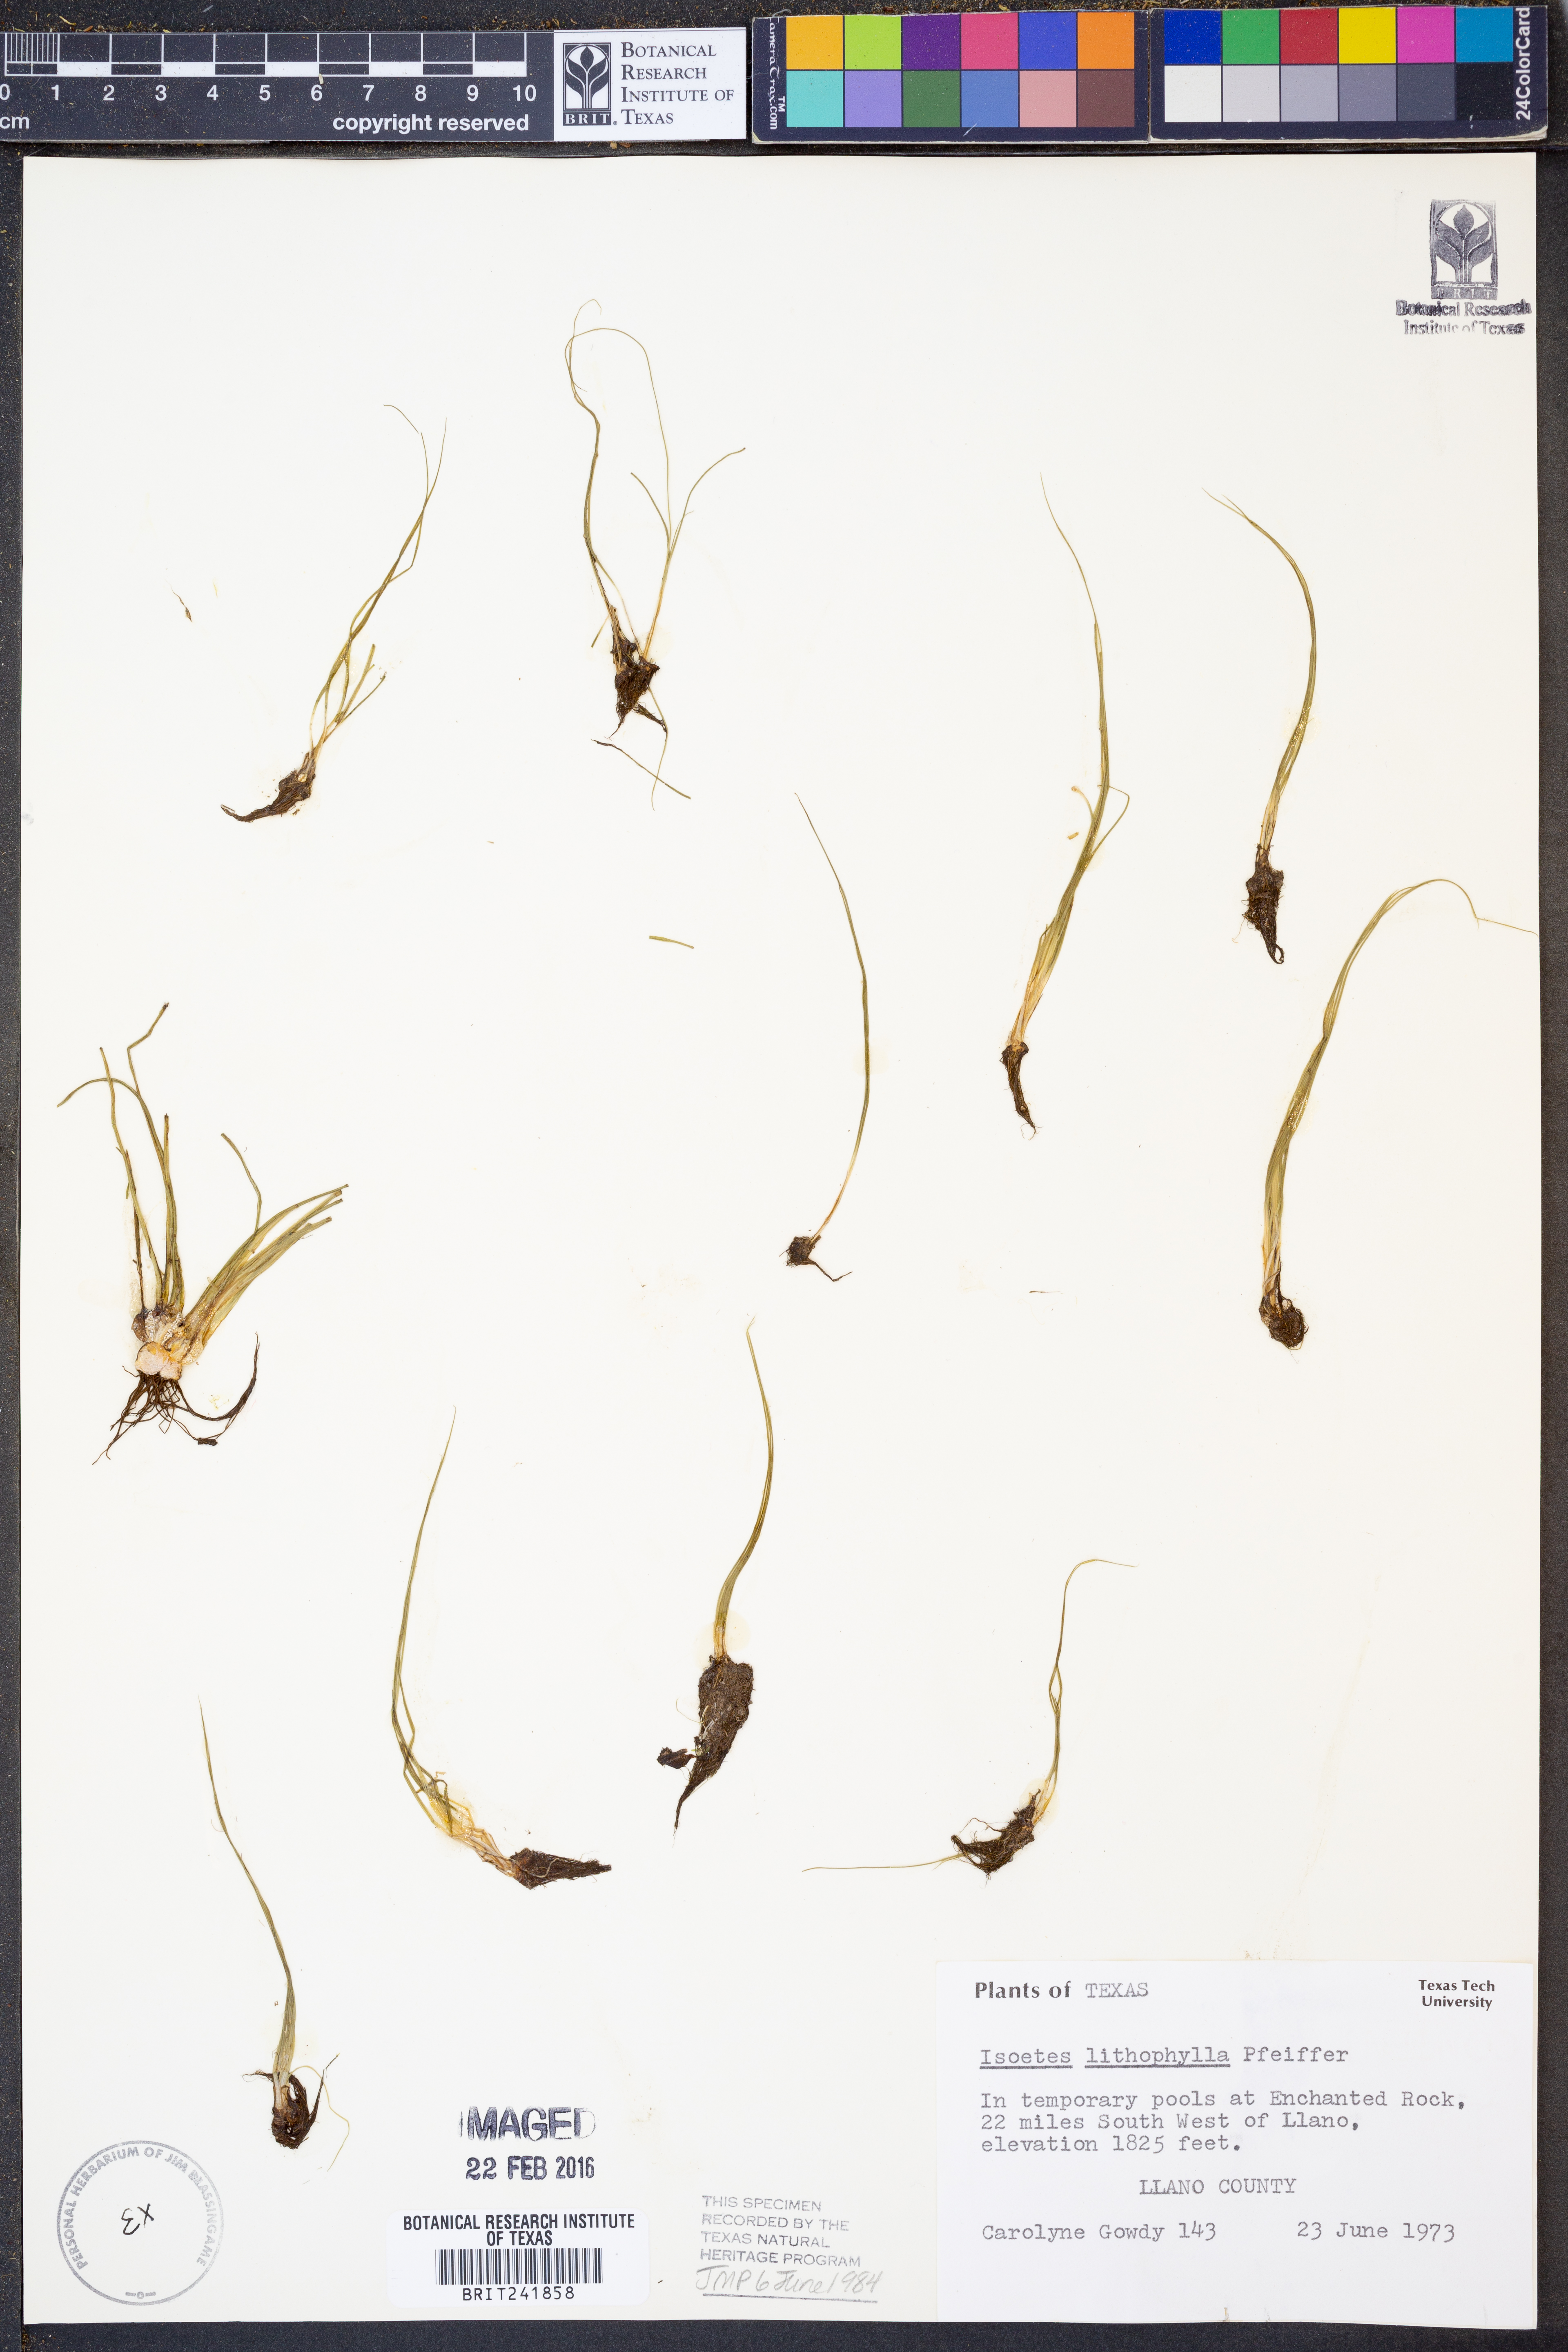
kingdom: Plantae
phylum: Tracheophyta
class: Lycopodiopsida
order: Isoetales
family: Isoetaceae
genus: Isoetes
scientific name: Isoetes lithophila
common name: Rock quillwort
